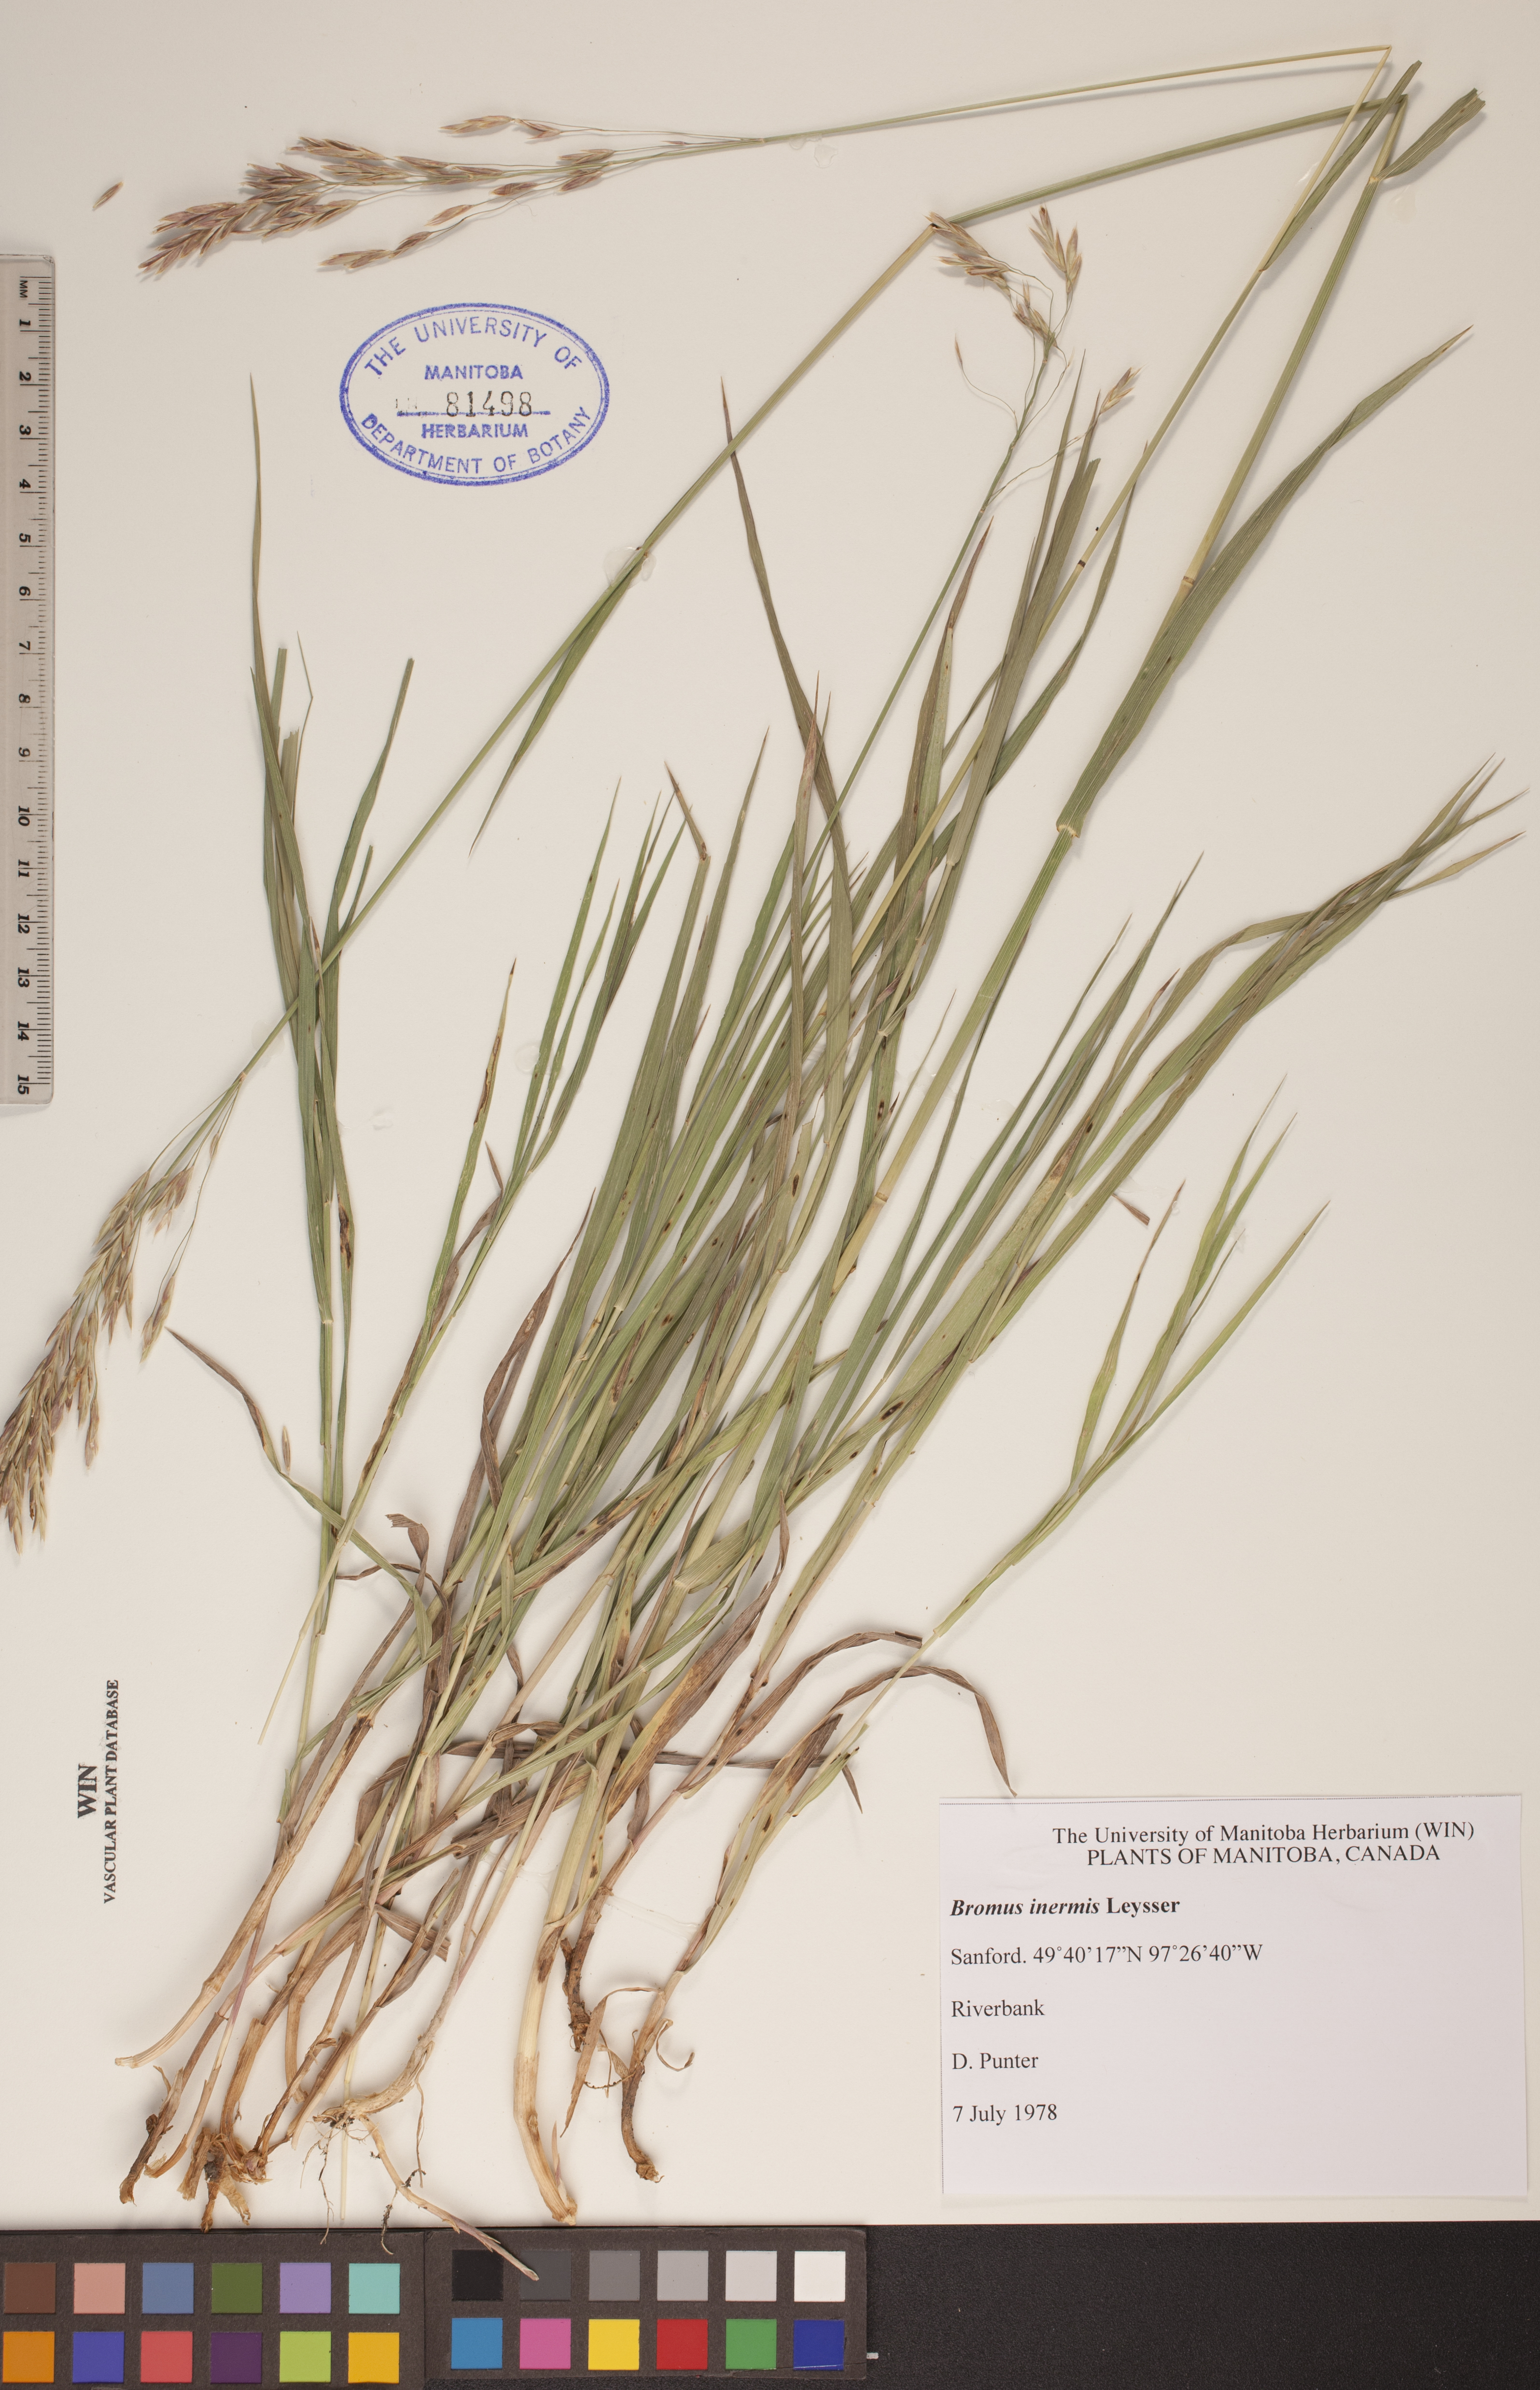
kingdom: Plantae
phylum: Tracheophyta
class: Liliopsida
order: Poales
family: Poaceae
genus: Bromus
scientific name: Bromus inermis
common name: Smooth brome
